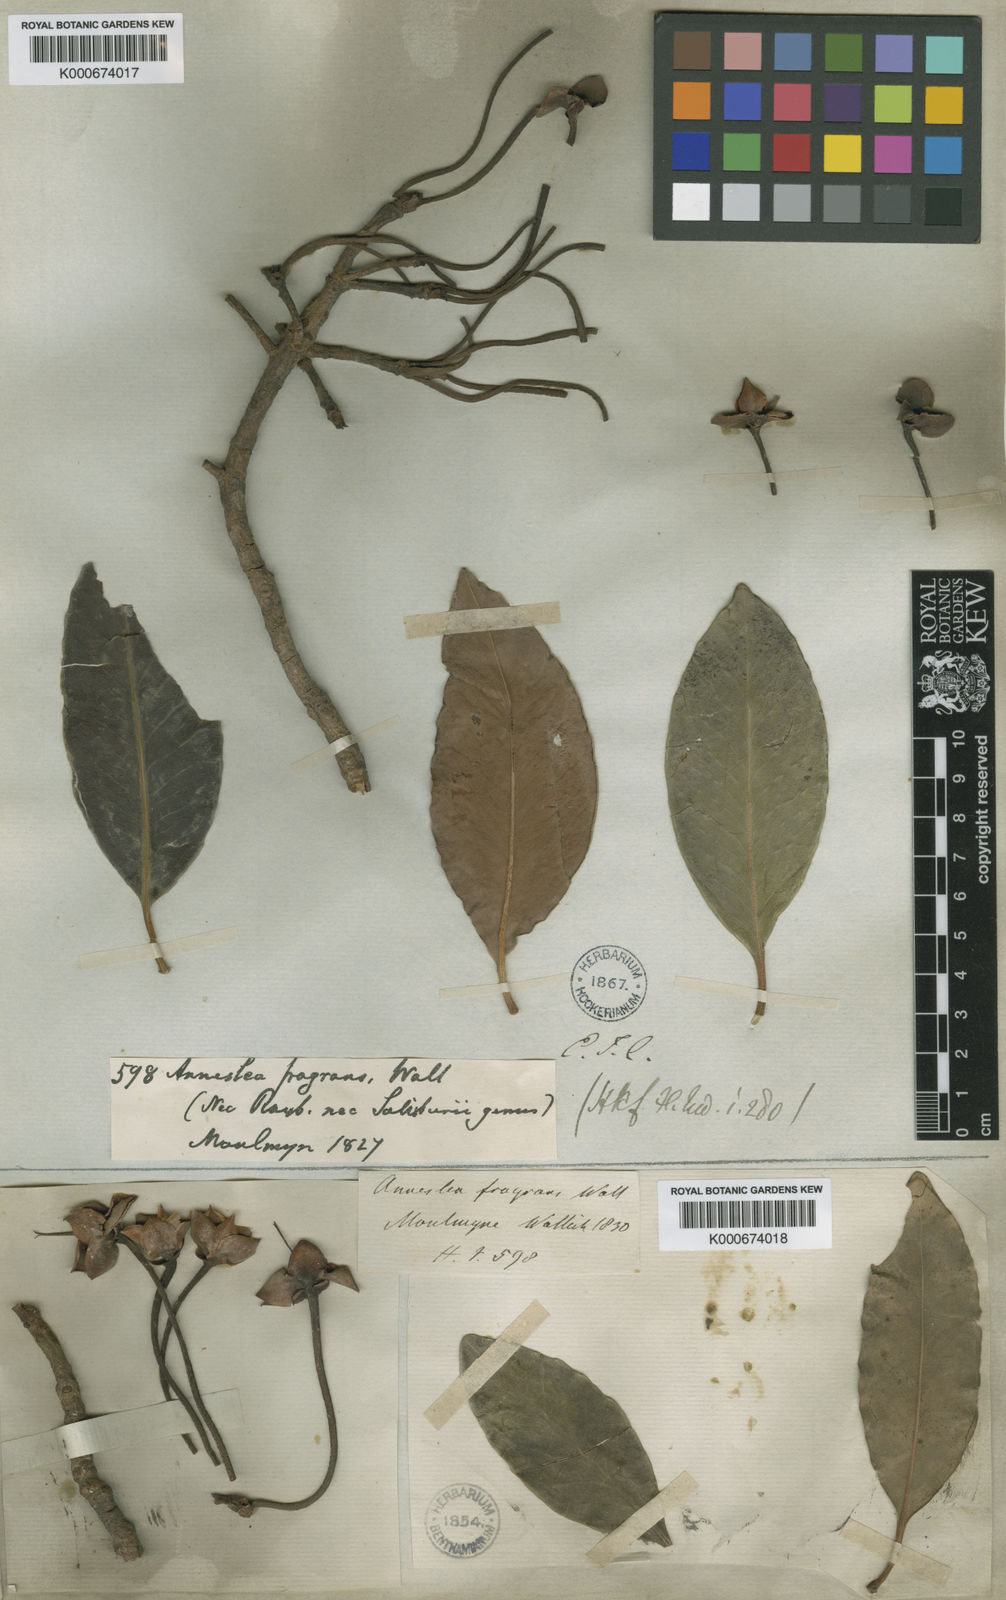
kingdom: Plantae
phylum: Tracheophyta
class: Magnoliopsida
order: Ericales
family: Pentaphylacaceae
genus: Anneslea
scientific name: Anneslea fragrans
